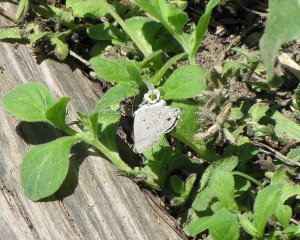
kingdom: Animalia
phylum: Arthropoda
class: Insecta
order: Lepidoptera
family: Lycaenidae
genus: Callicista
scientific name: Callicista columella
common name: Mallow Scrub-Hairstreak
